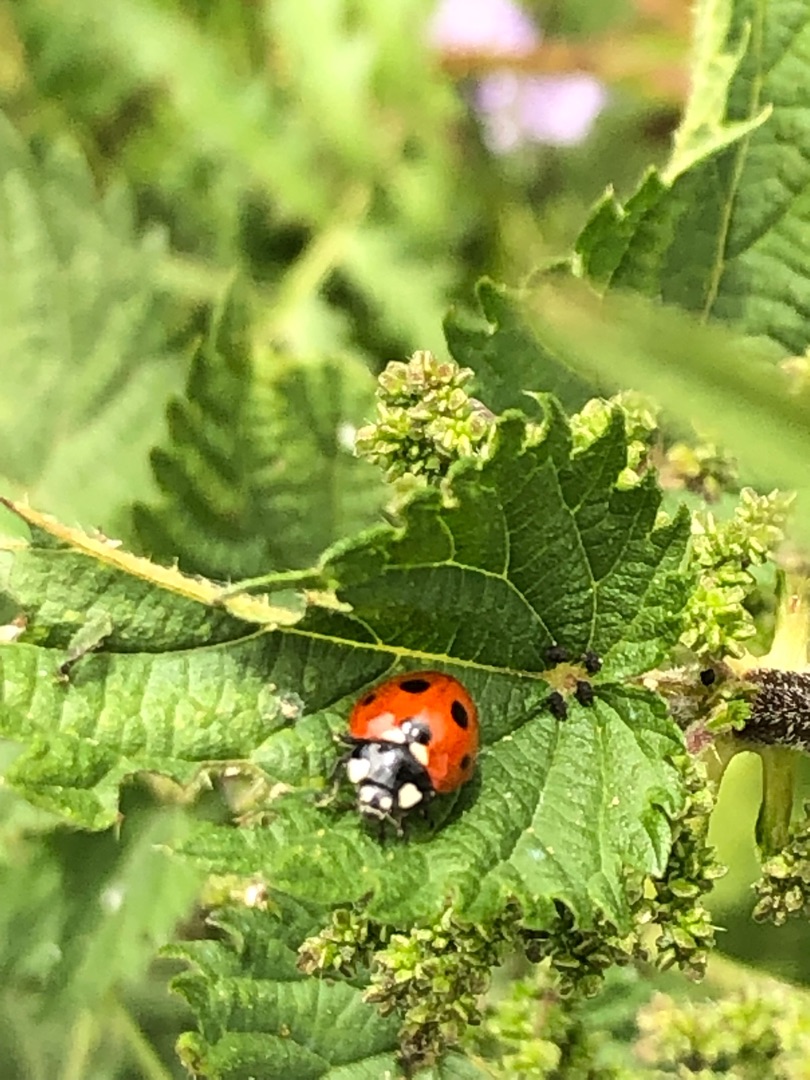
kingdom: Animalia
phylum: Arthropoda
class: Insecta
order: Coleoptera
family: Coccinellidae
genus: Coccinella
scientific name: Coccinella septempunctata
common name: Syvplettet mariehøne
